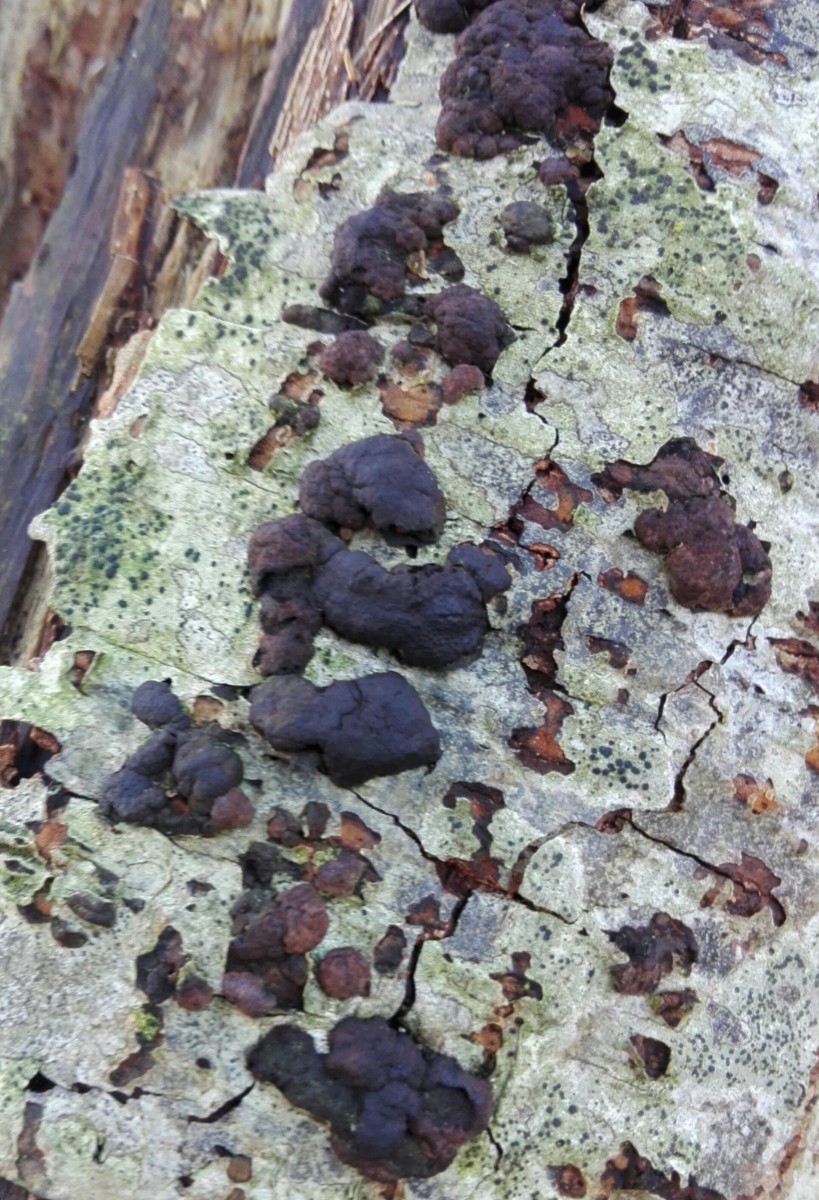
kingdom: Fungi
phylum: Ascomycota
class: Sordariomycetes
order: Xylariales
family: Hypoxylaceae
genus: Jackrogersella
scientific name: Jackrogersella multiformis
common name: foranderlig kulbær
